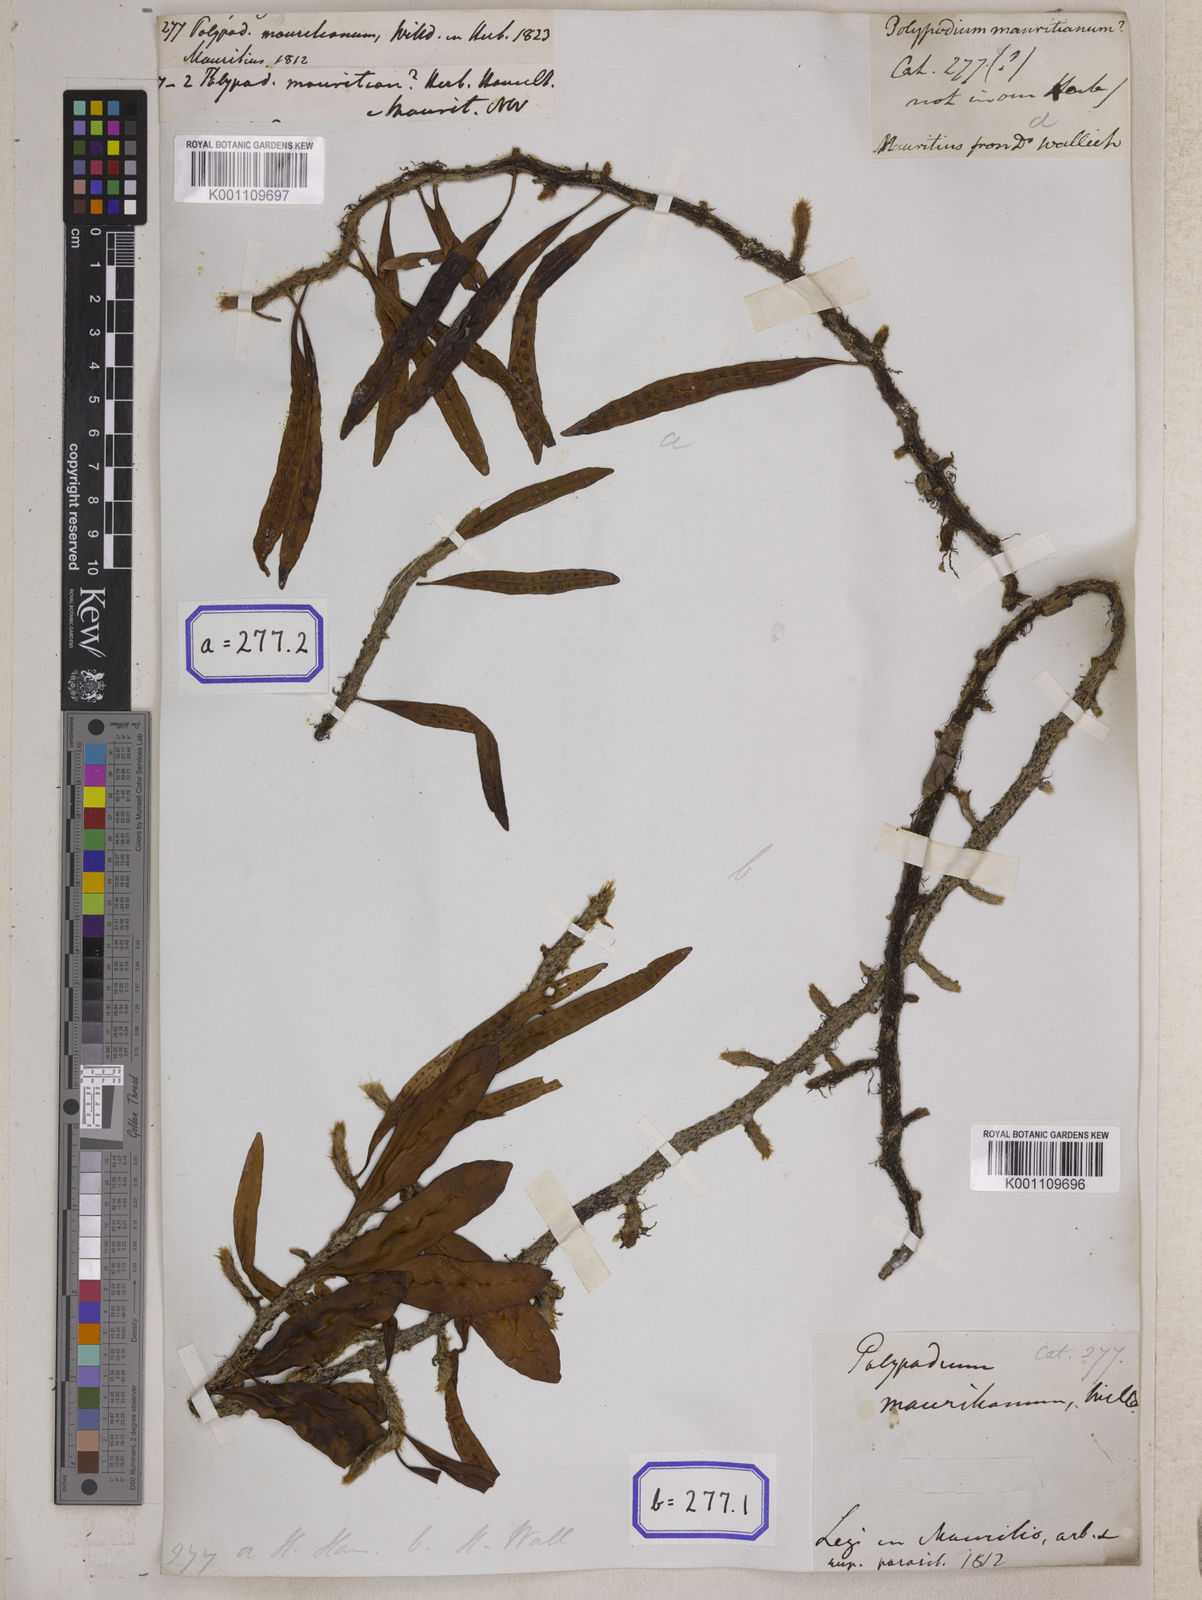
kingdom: Plantae
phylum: Tracheophyta
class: Polypodiopsida
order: Polypodiales
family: Polypodiaceae
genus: Microgramma
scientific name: Microgramma mauritiana
